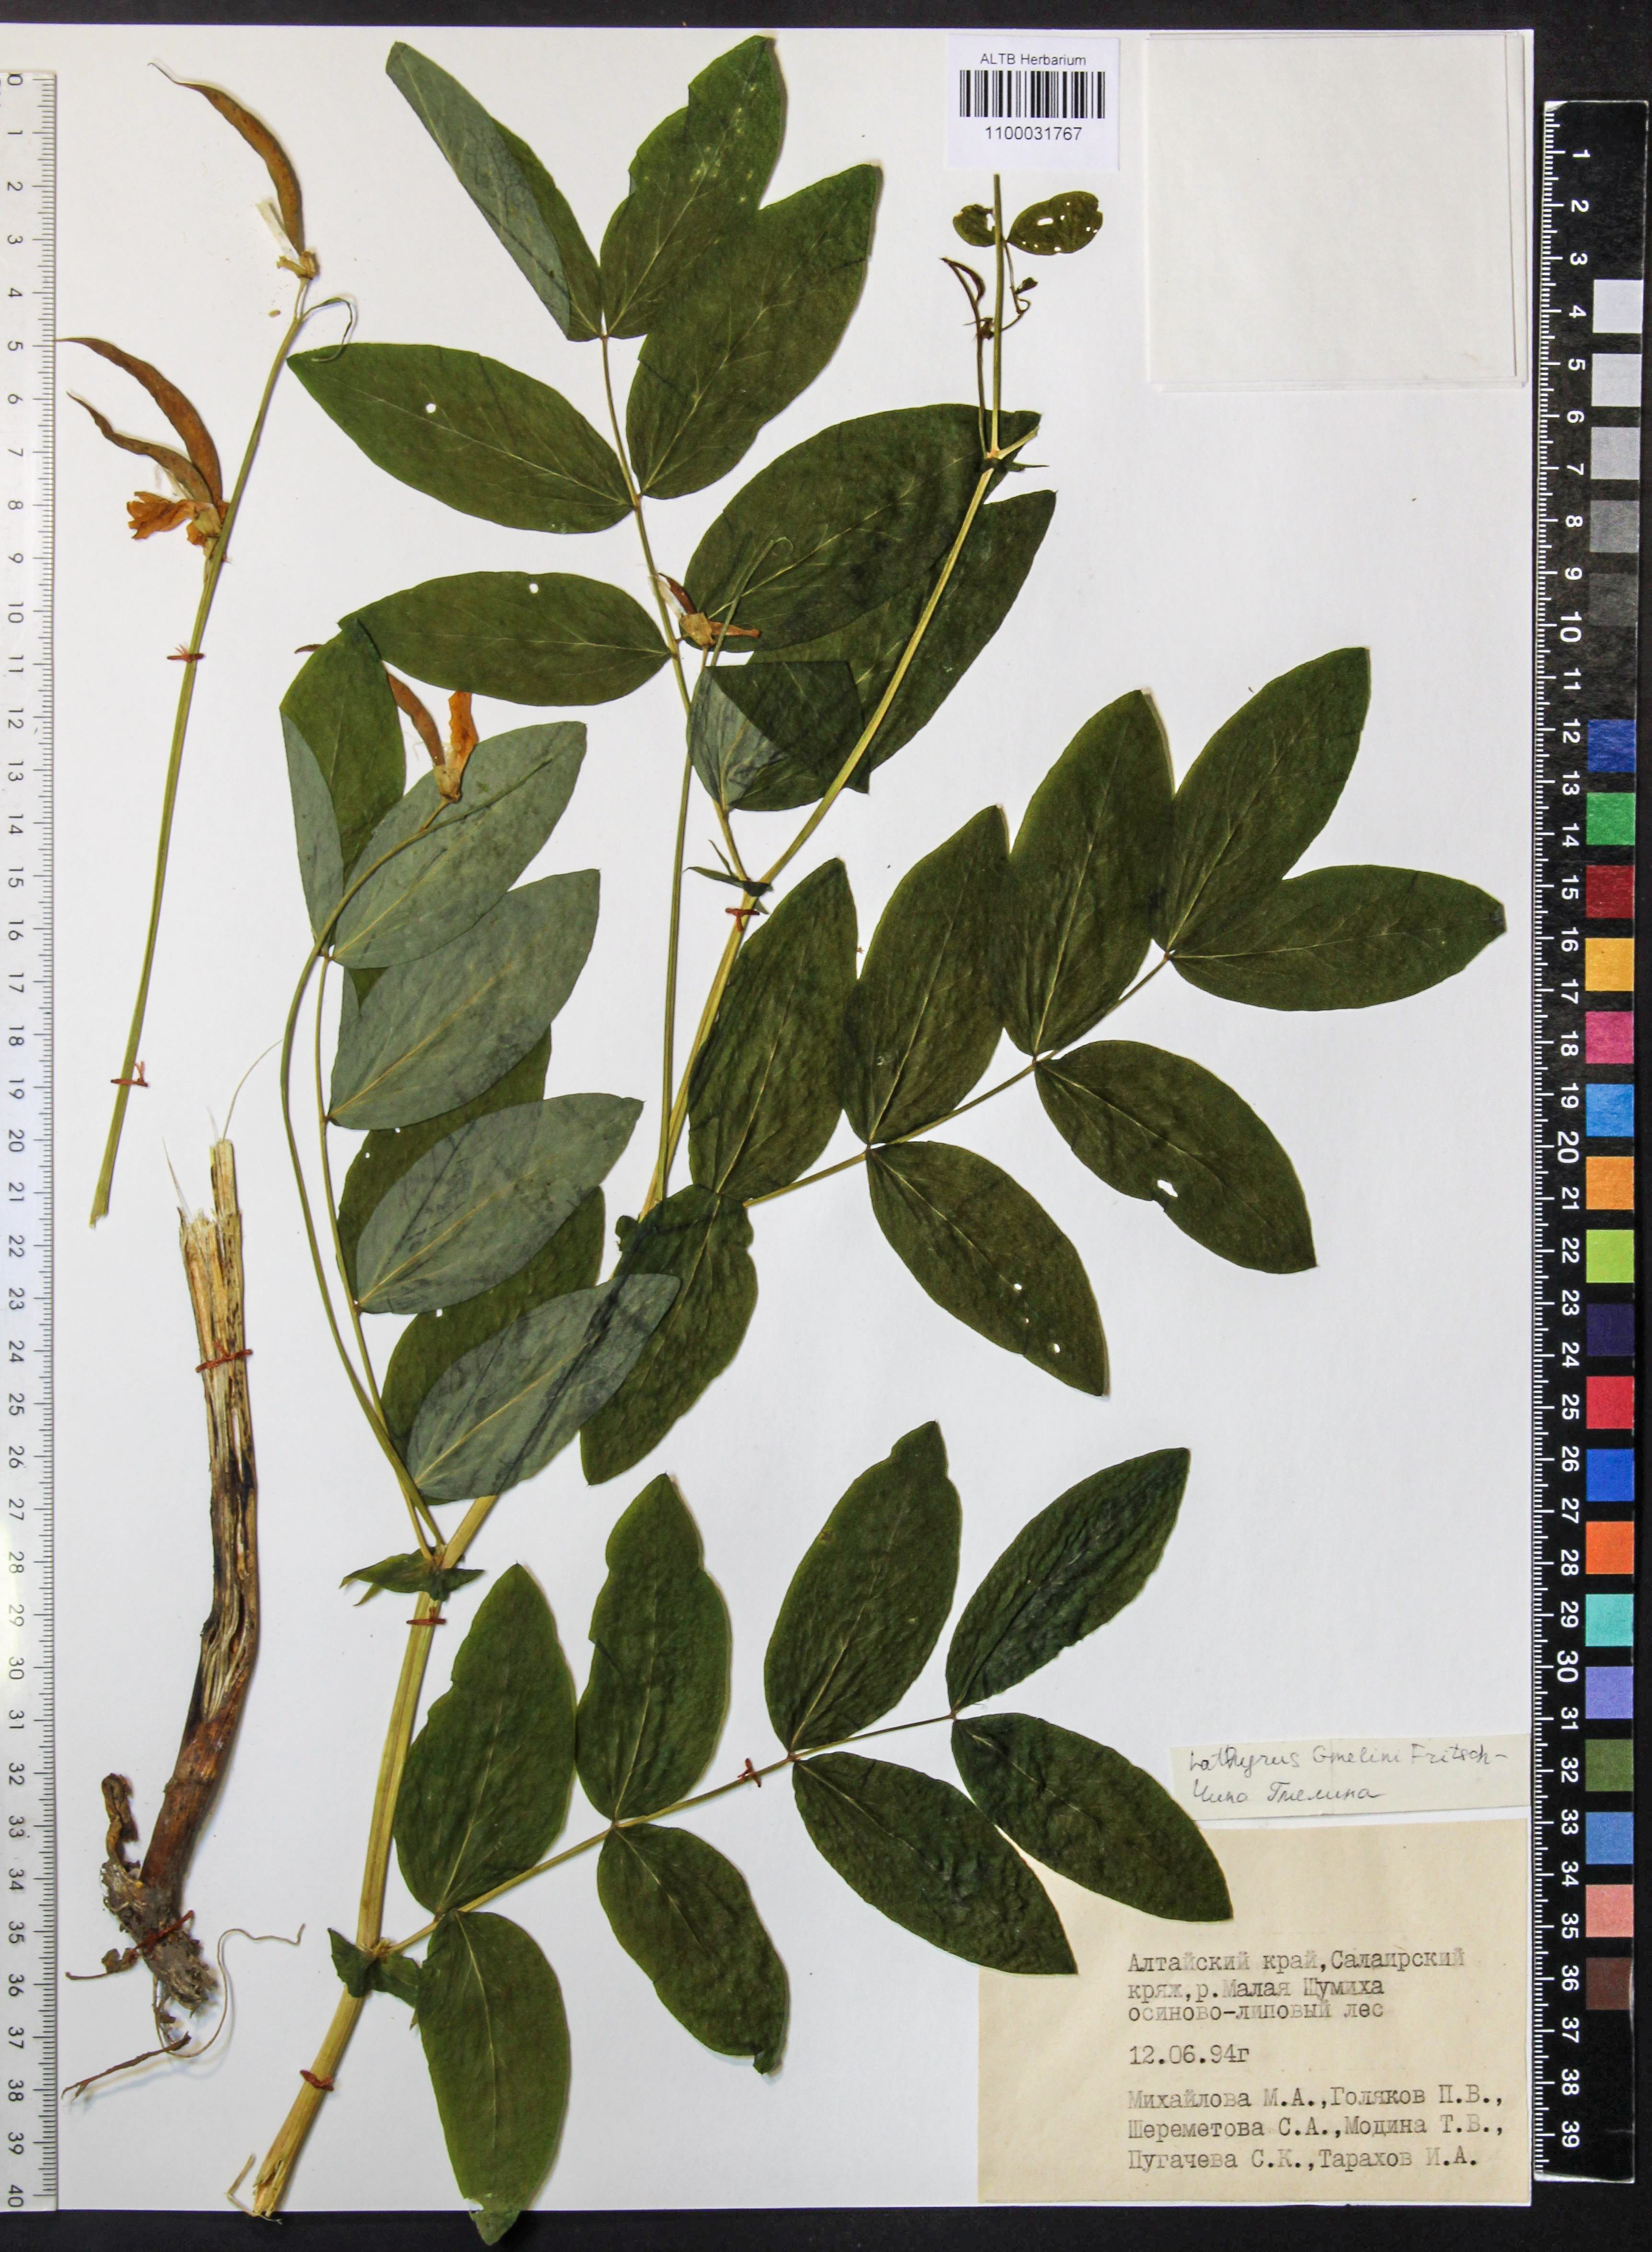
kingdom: Plantae
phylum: Tracheophyta
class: Magnoliopsida
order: Fabales
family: Fabaceae
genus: Lathyrus
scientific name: Lathyrus gmelinii
